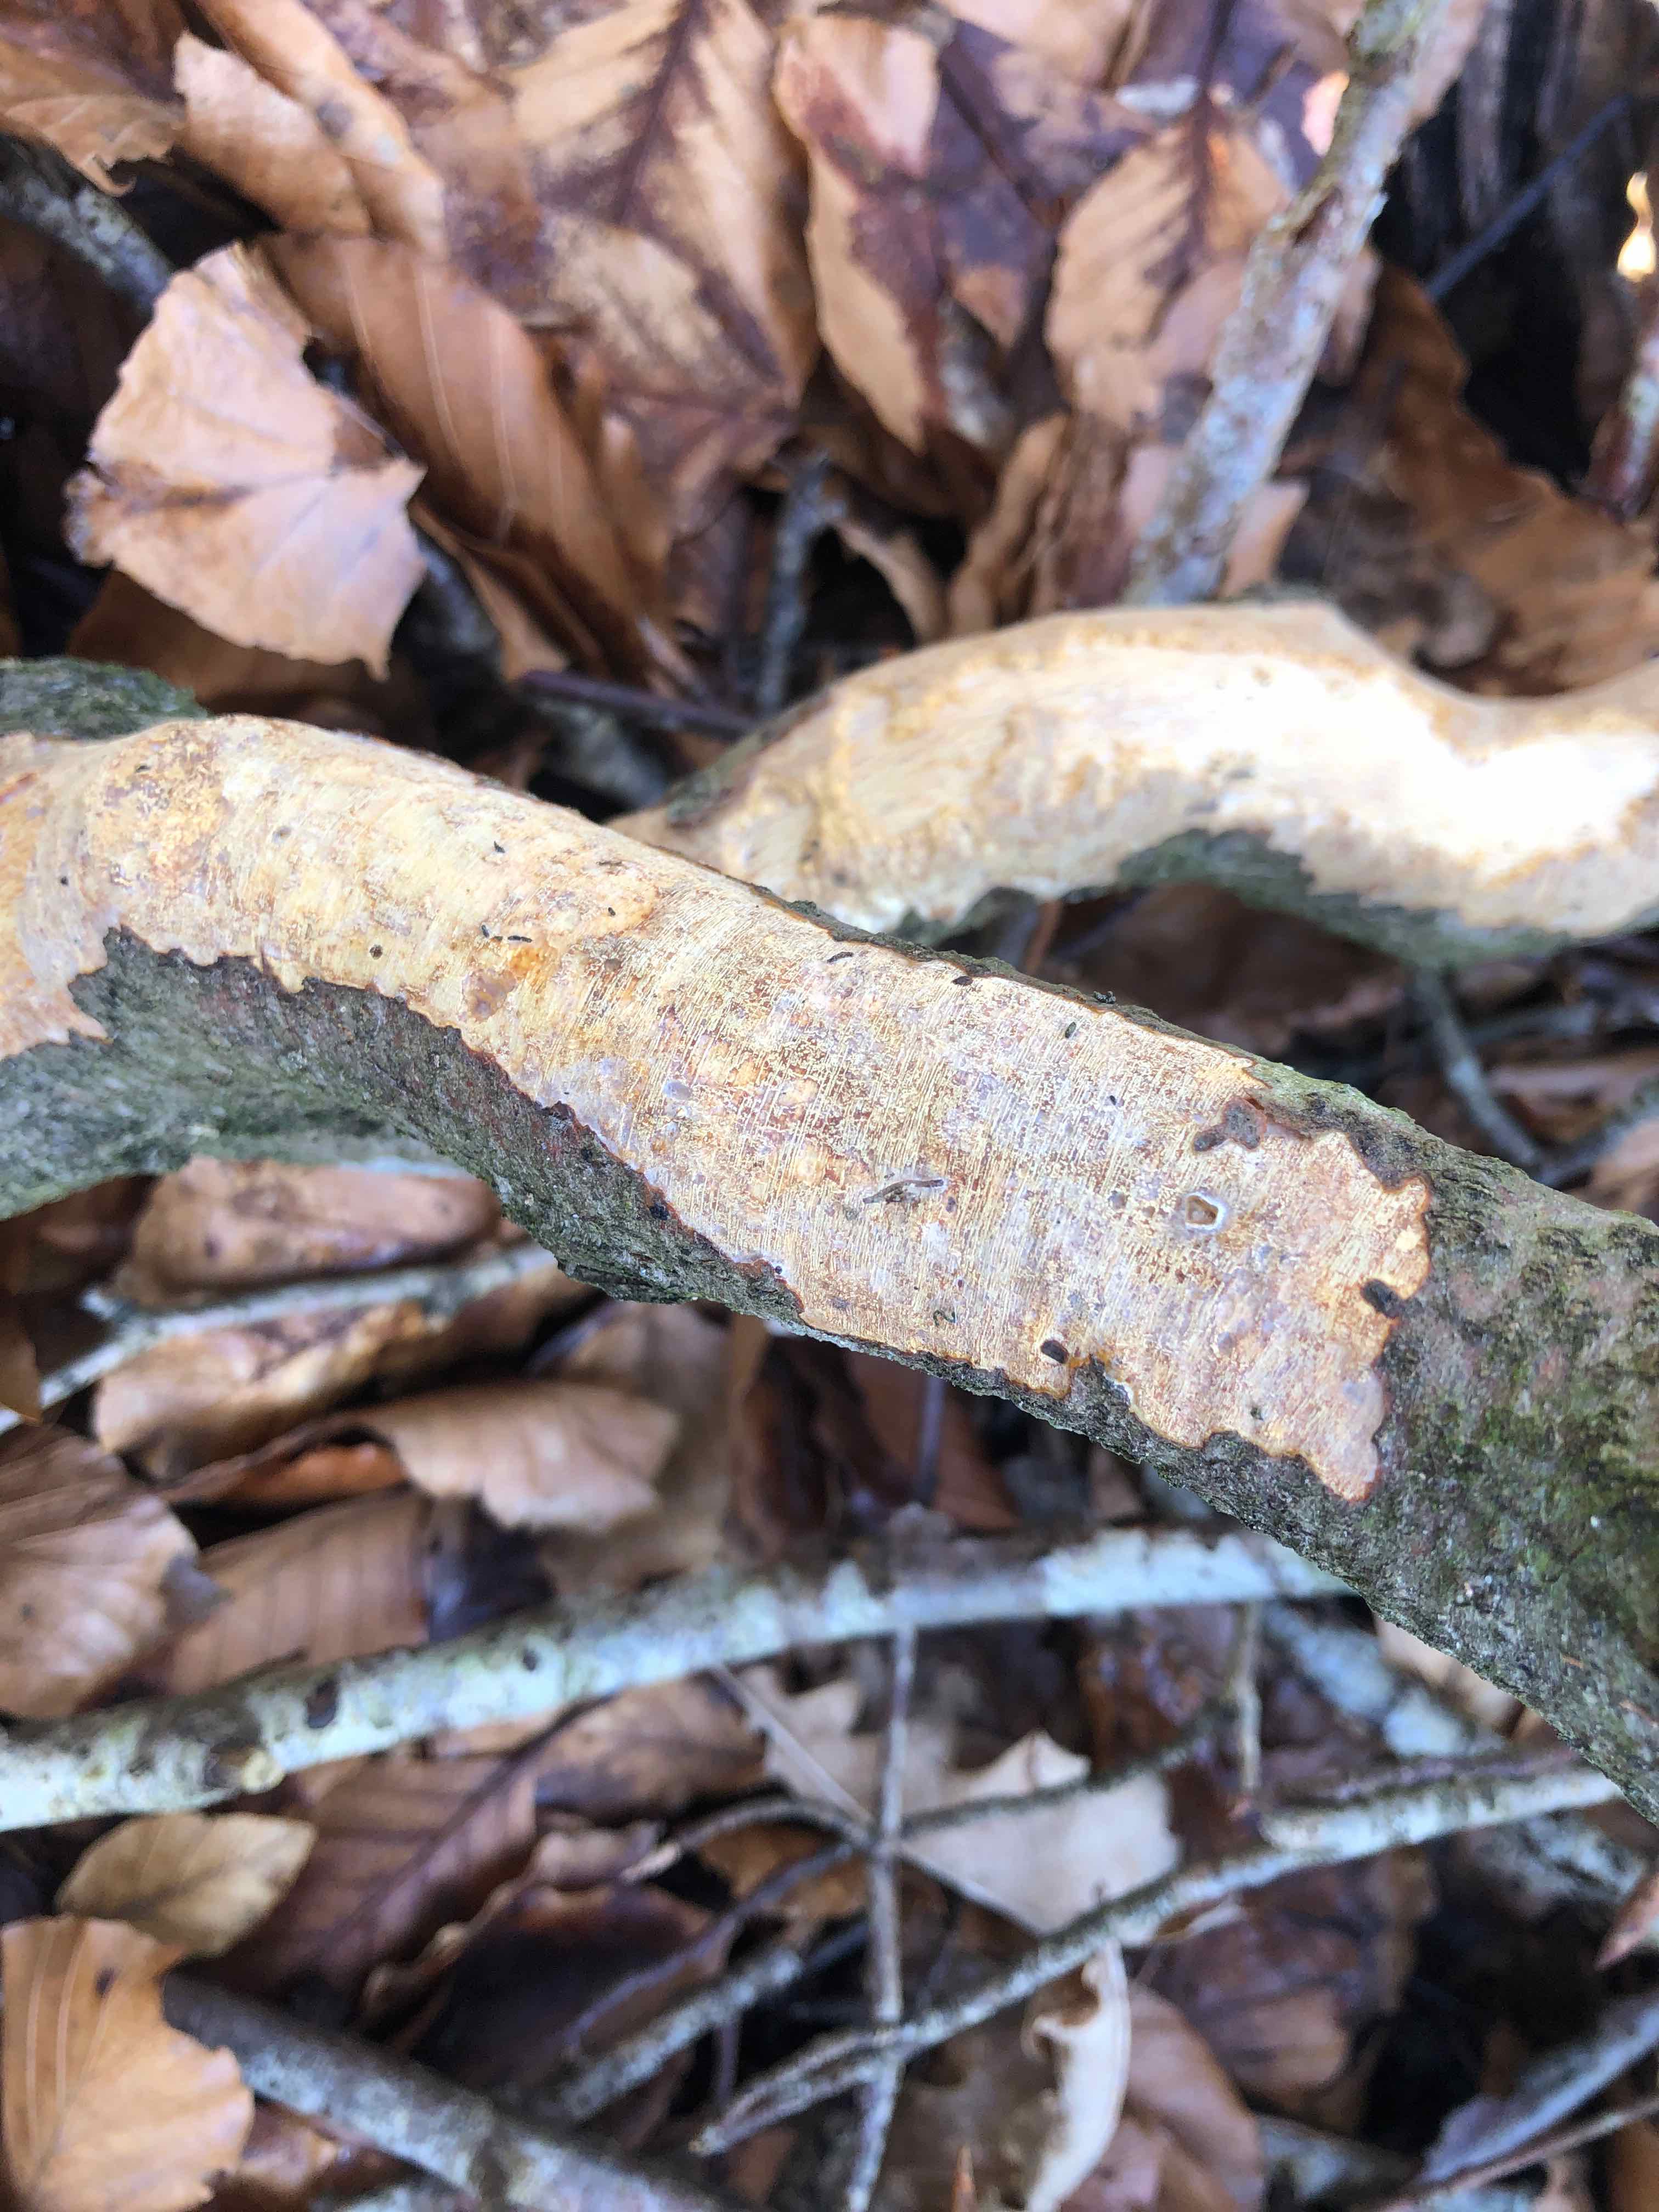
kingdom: Fungi
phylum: Basidiomycota
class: Agaricomycetes
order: Corticiales
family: Vuilleminiaceae
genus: Vuilleminia
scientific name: Vuilleminia comedens
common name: almindelig barksprænger
